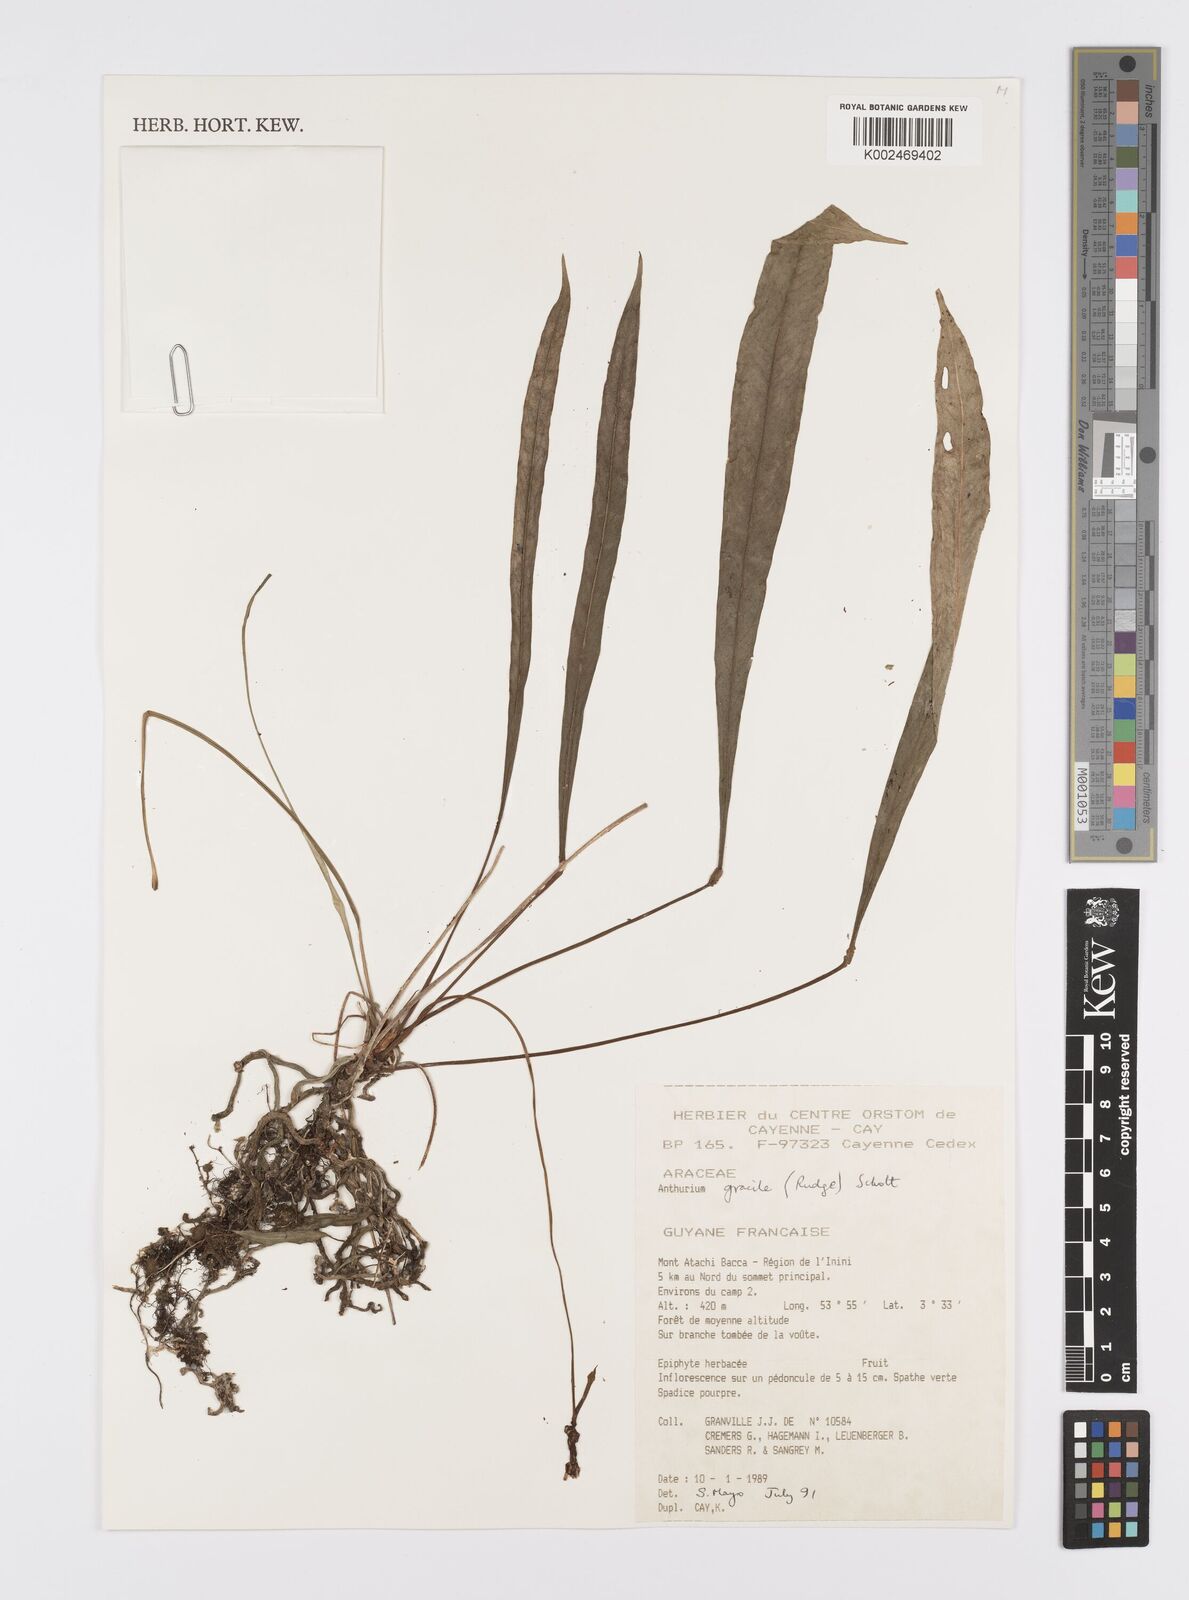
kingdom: Plantae
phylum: Tracheophyta
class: Liliopsida
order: Alismatales
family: Araceae
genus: Anthurium
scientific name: Anthurium gracile
